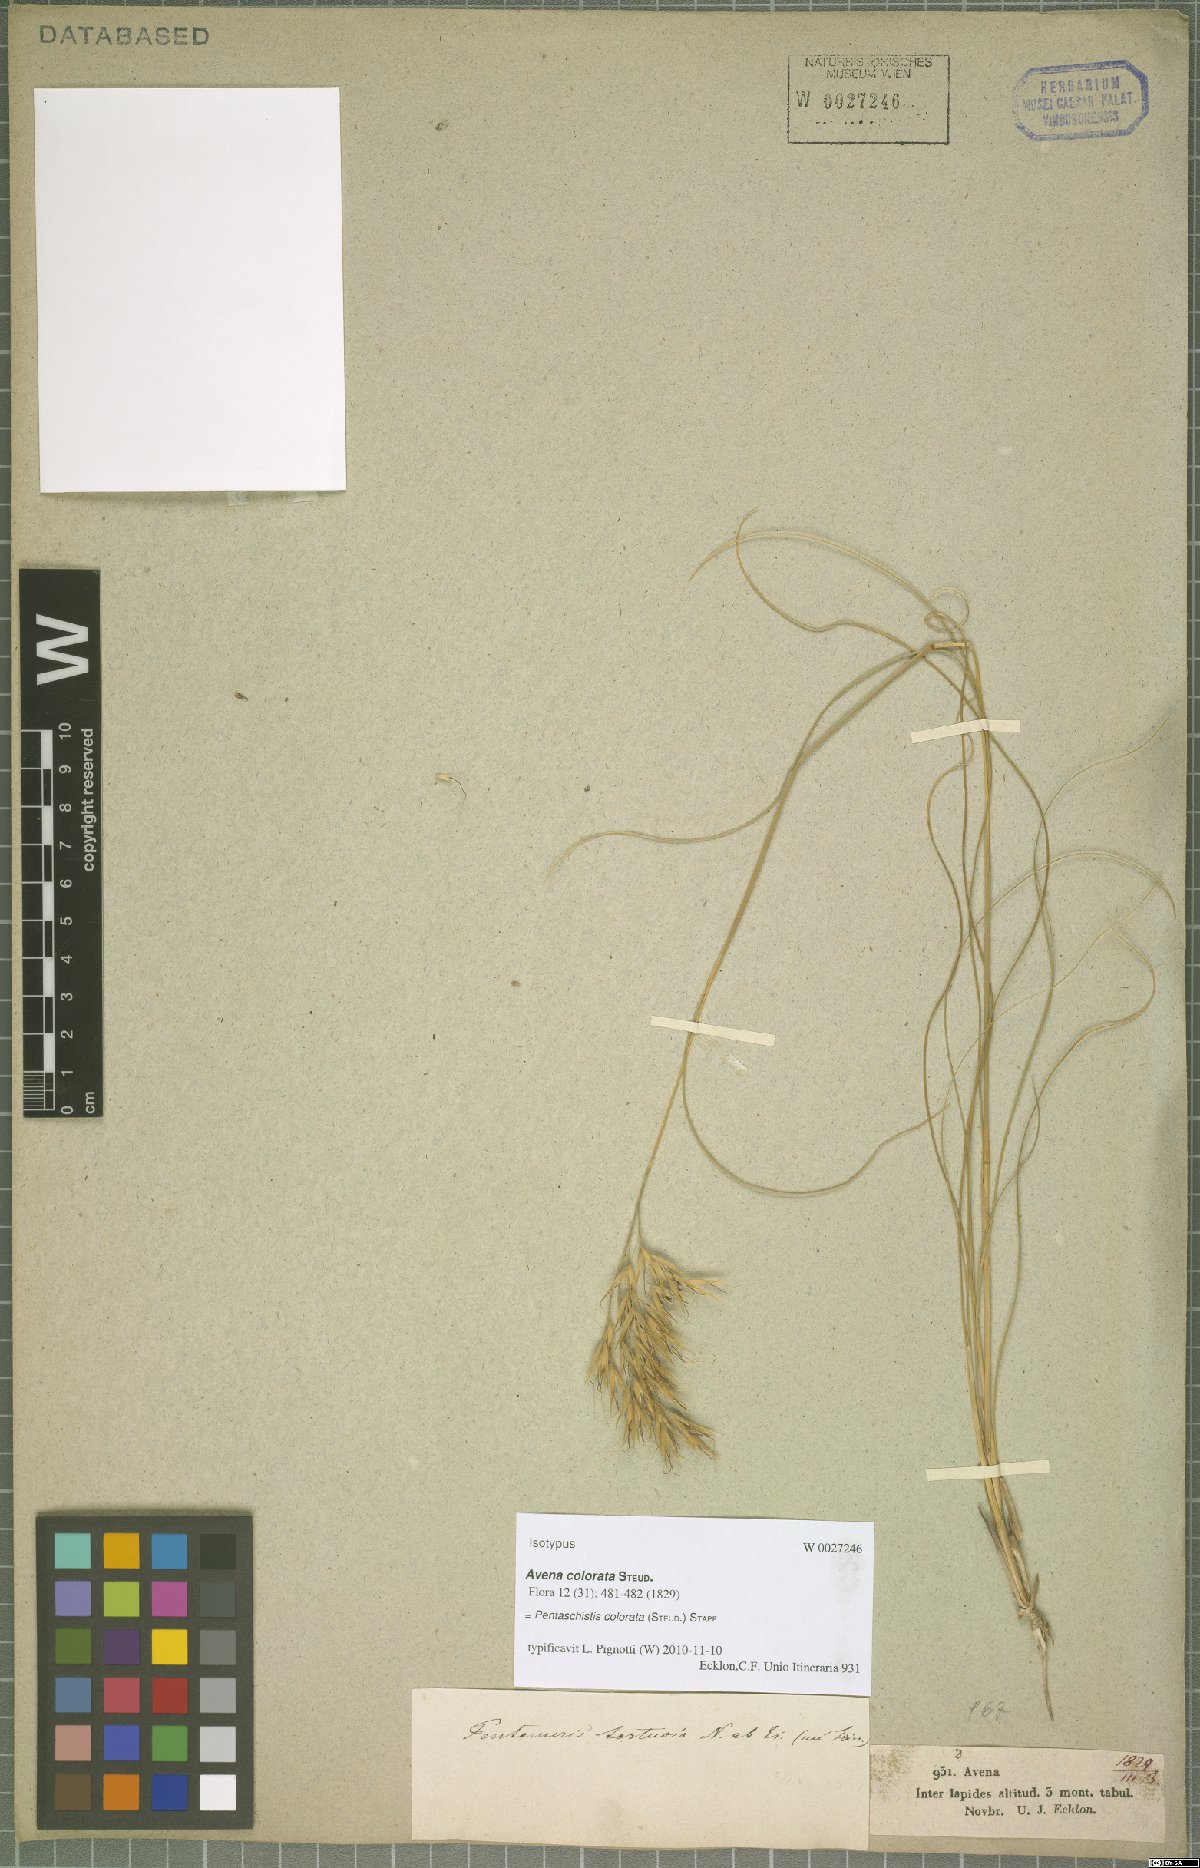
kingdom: Plantae
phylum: Tracheophyta
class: Liliopsida
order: Poales
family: Poaceae
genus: Pentameris
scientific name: Pentameris colorata
